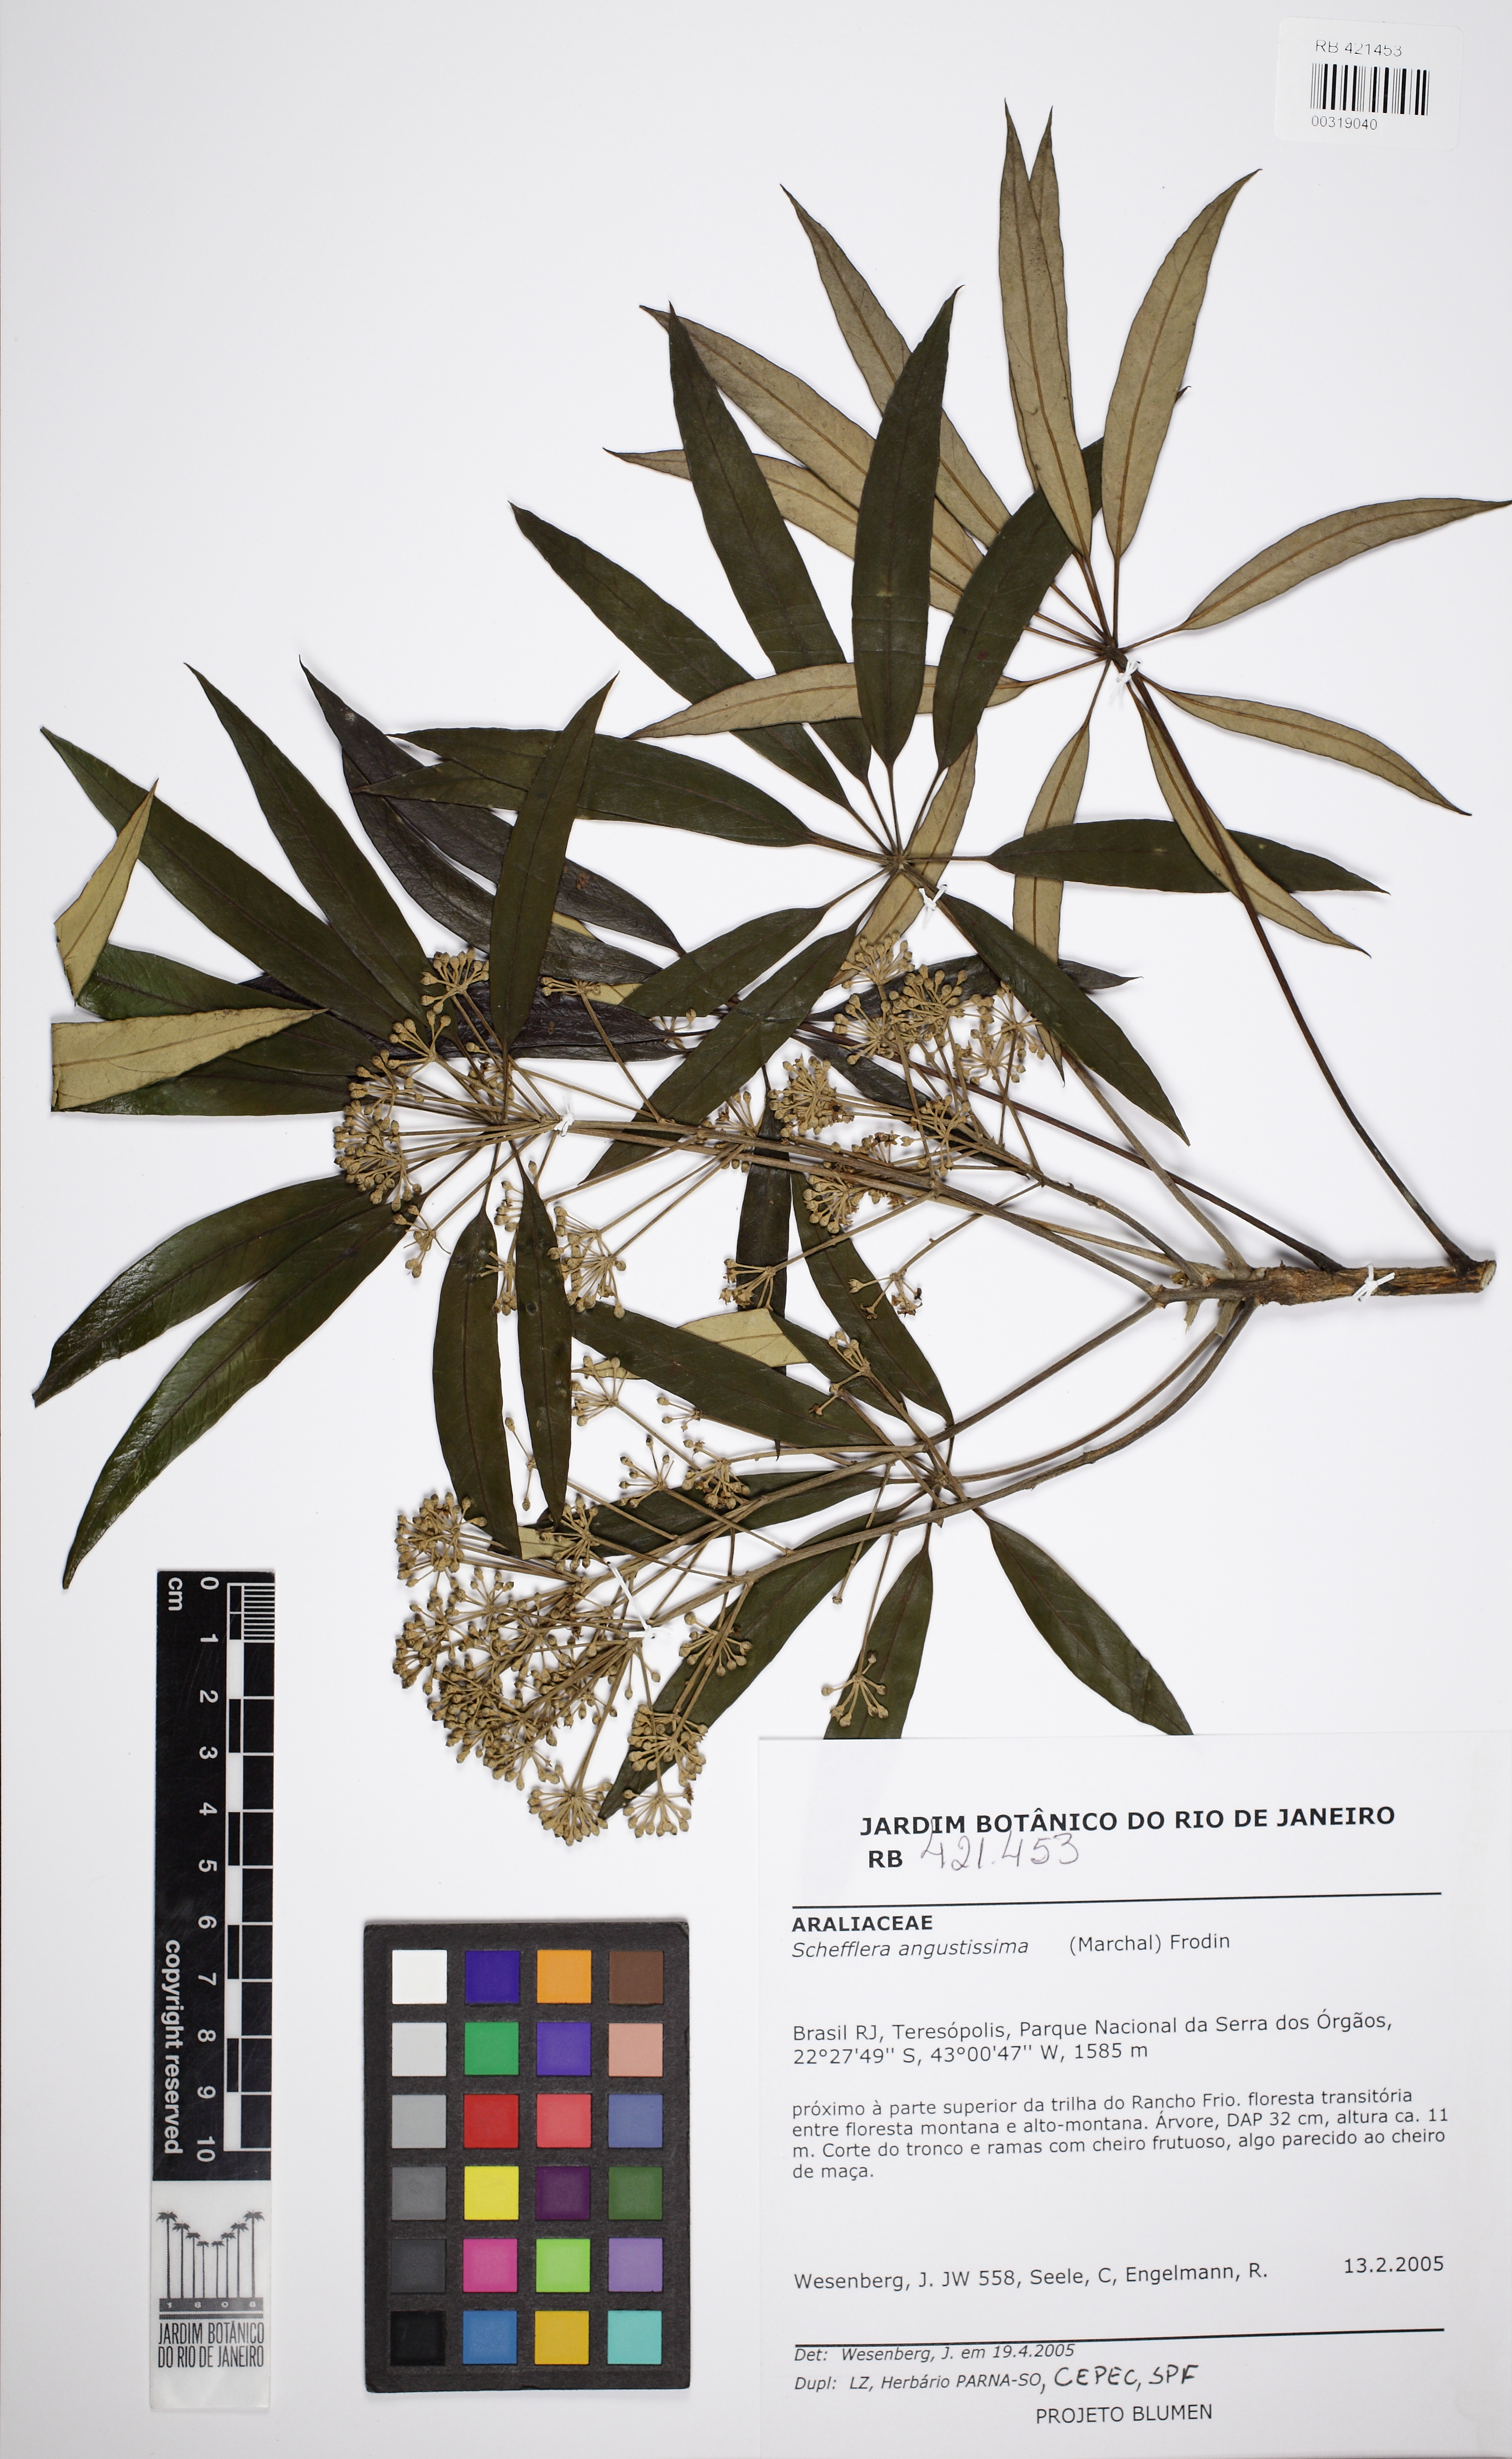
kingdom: Plantae
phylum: Tracheophyta
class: Magnoliopsida
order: Apiales
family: Araliaceae
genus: Didymopanax
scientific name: Didymopanax angustissimus
